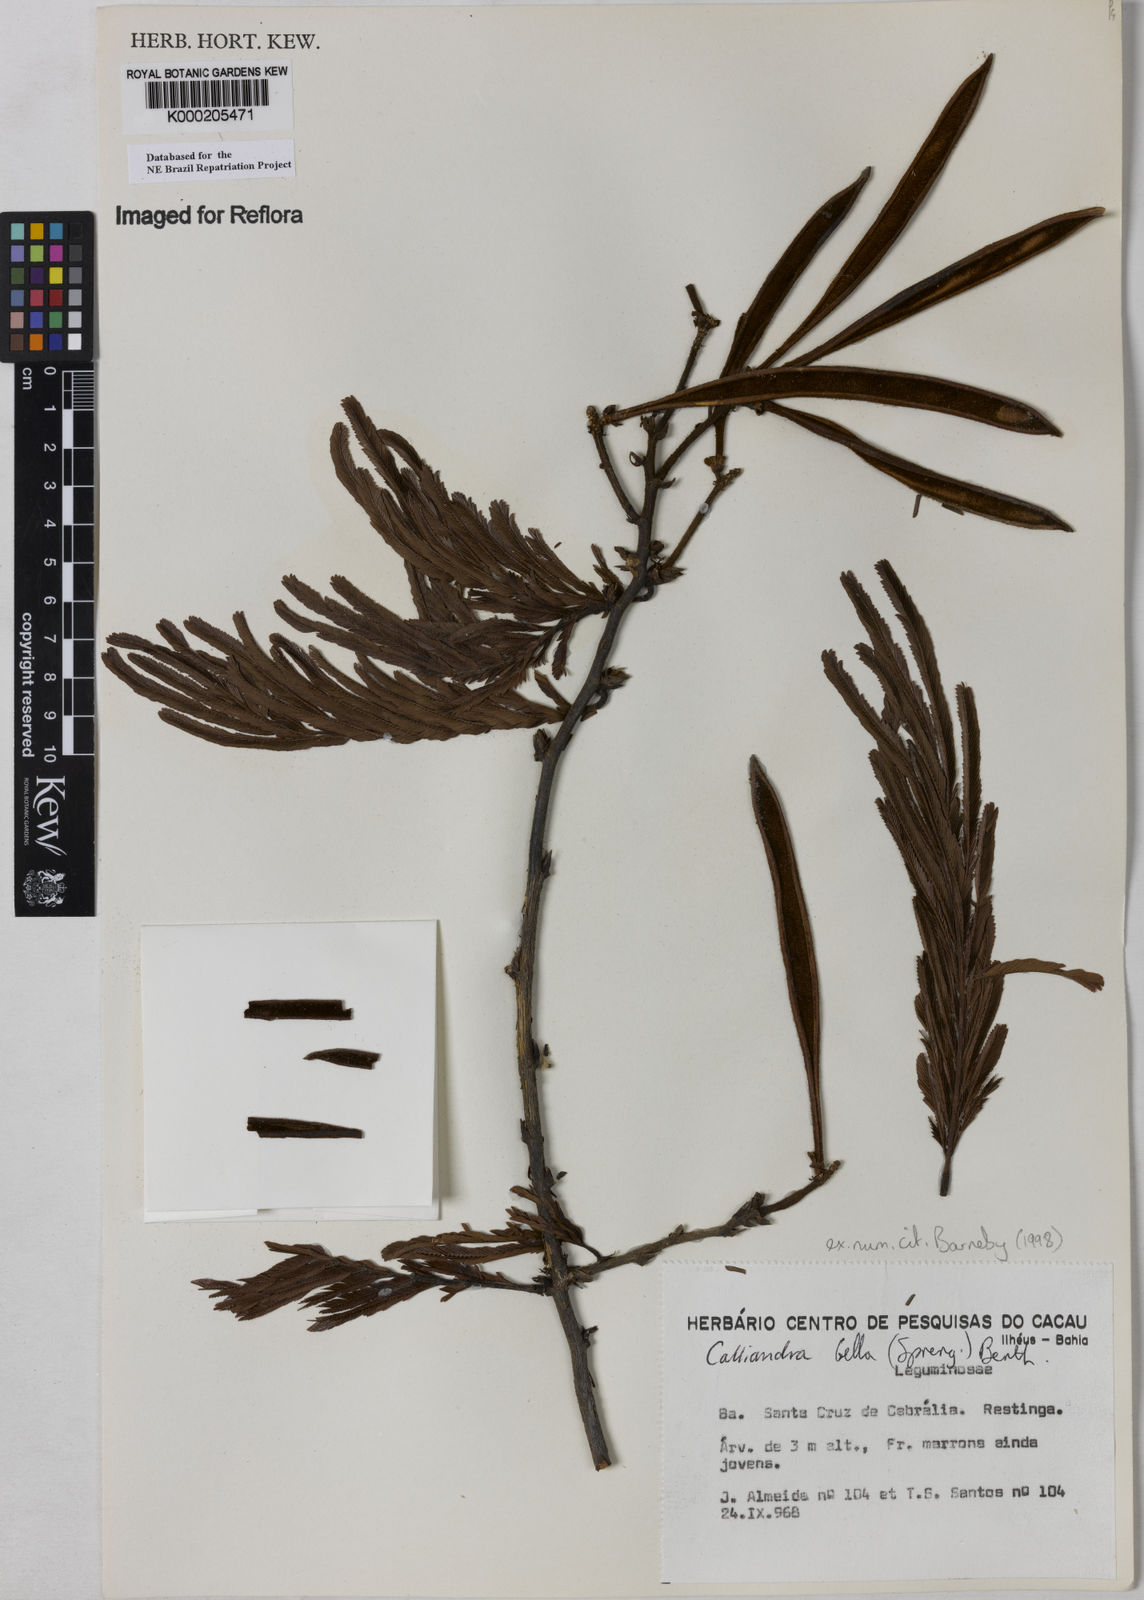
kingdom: Plantae
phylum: Tracheophyta
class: Magnoliopsida
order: Fabales
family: Fabaceae
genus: Calliandra
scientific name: Calliandra bella
